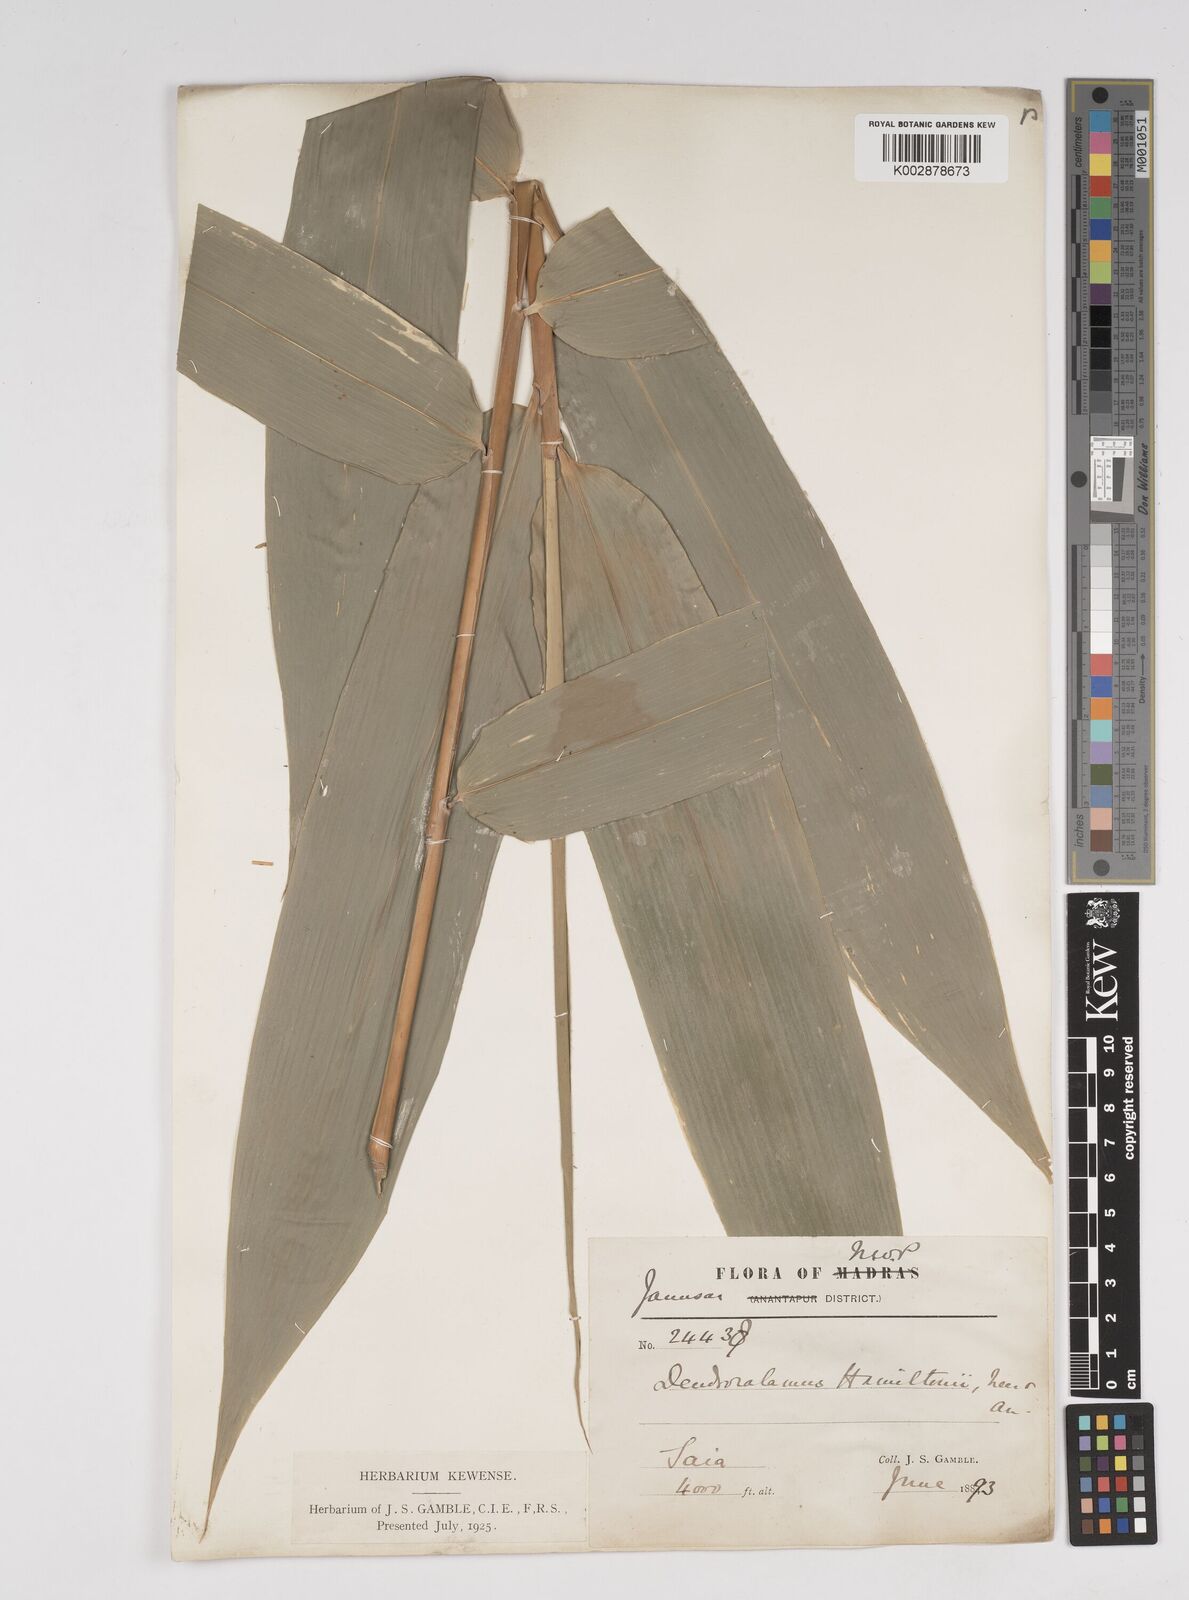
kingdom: Plantae
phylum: Tracheophyta
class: Liliopsida
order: Poales
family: Poaceae
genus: Dendrocalamus
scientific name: Dendrocalamus hamiltonii
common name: Tama bamboo
